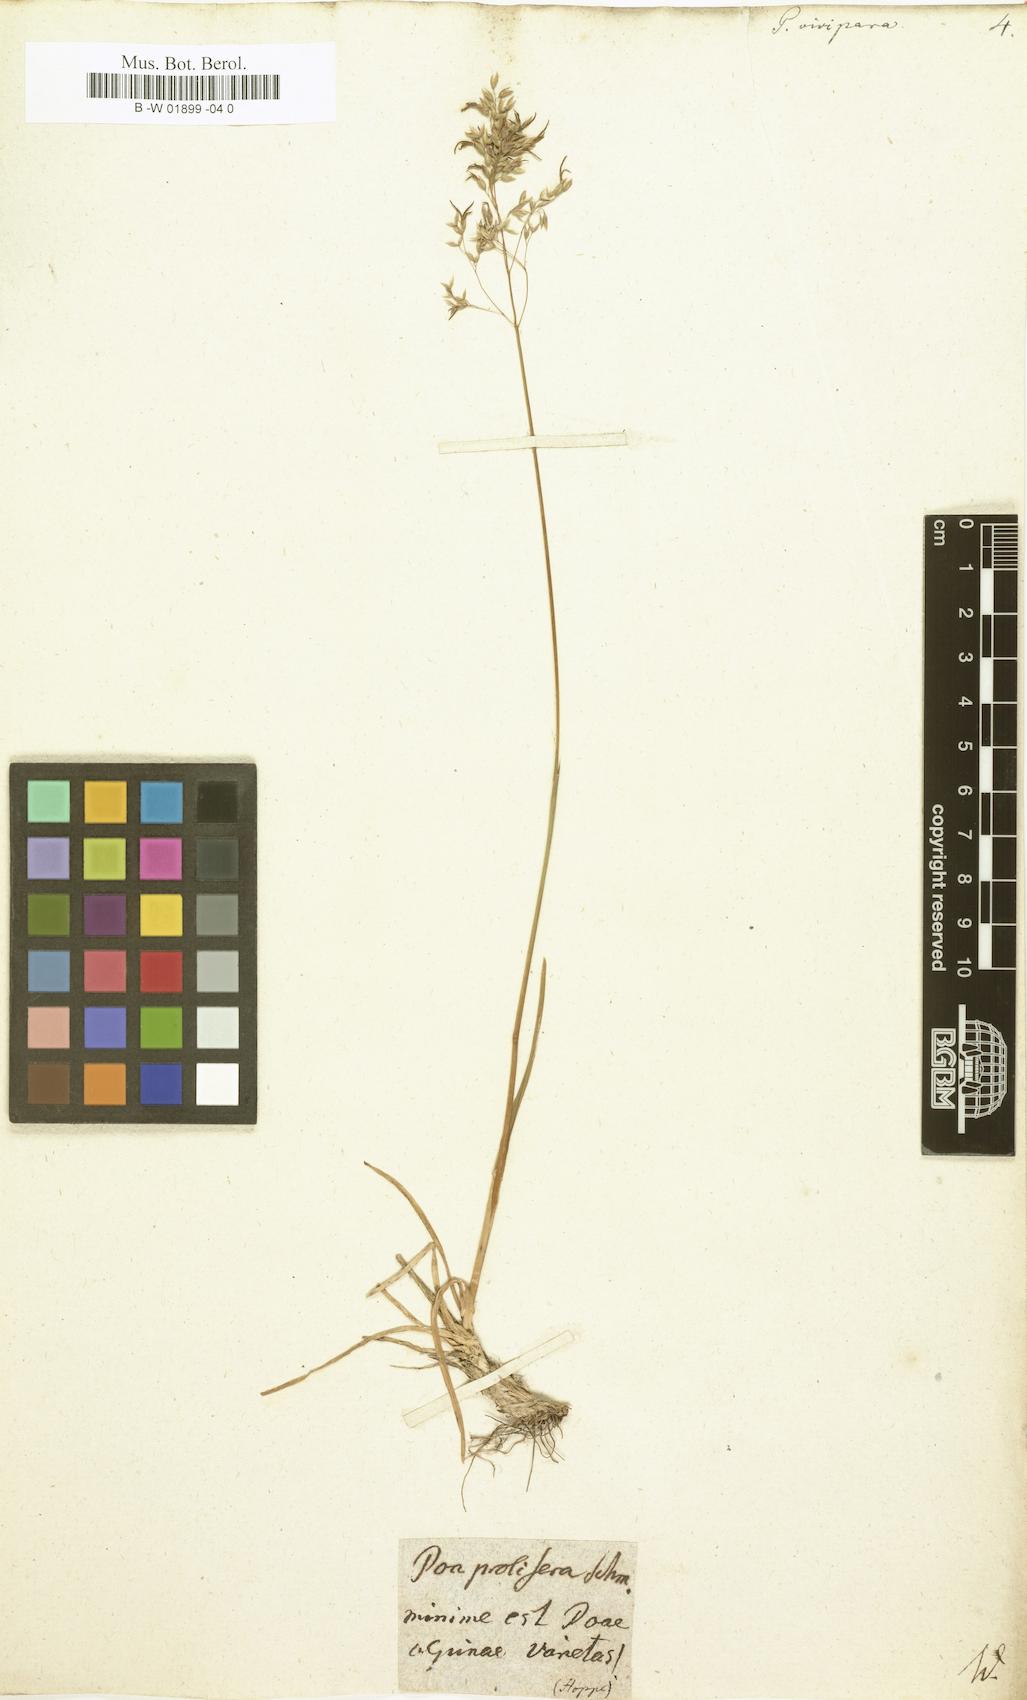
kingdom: Plantae
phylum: Tracheophyta
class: Liliopsida
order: Poales
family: Poaceae
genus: Poa
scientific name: Poa alpina
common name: Alpine bluegrass
